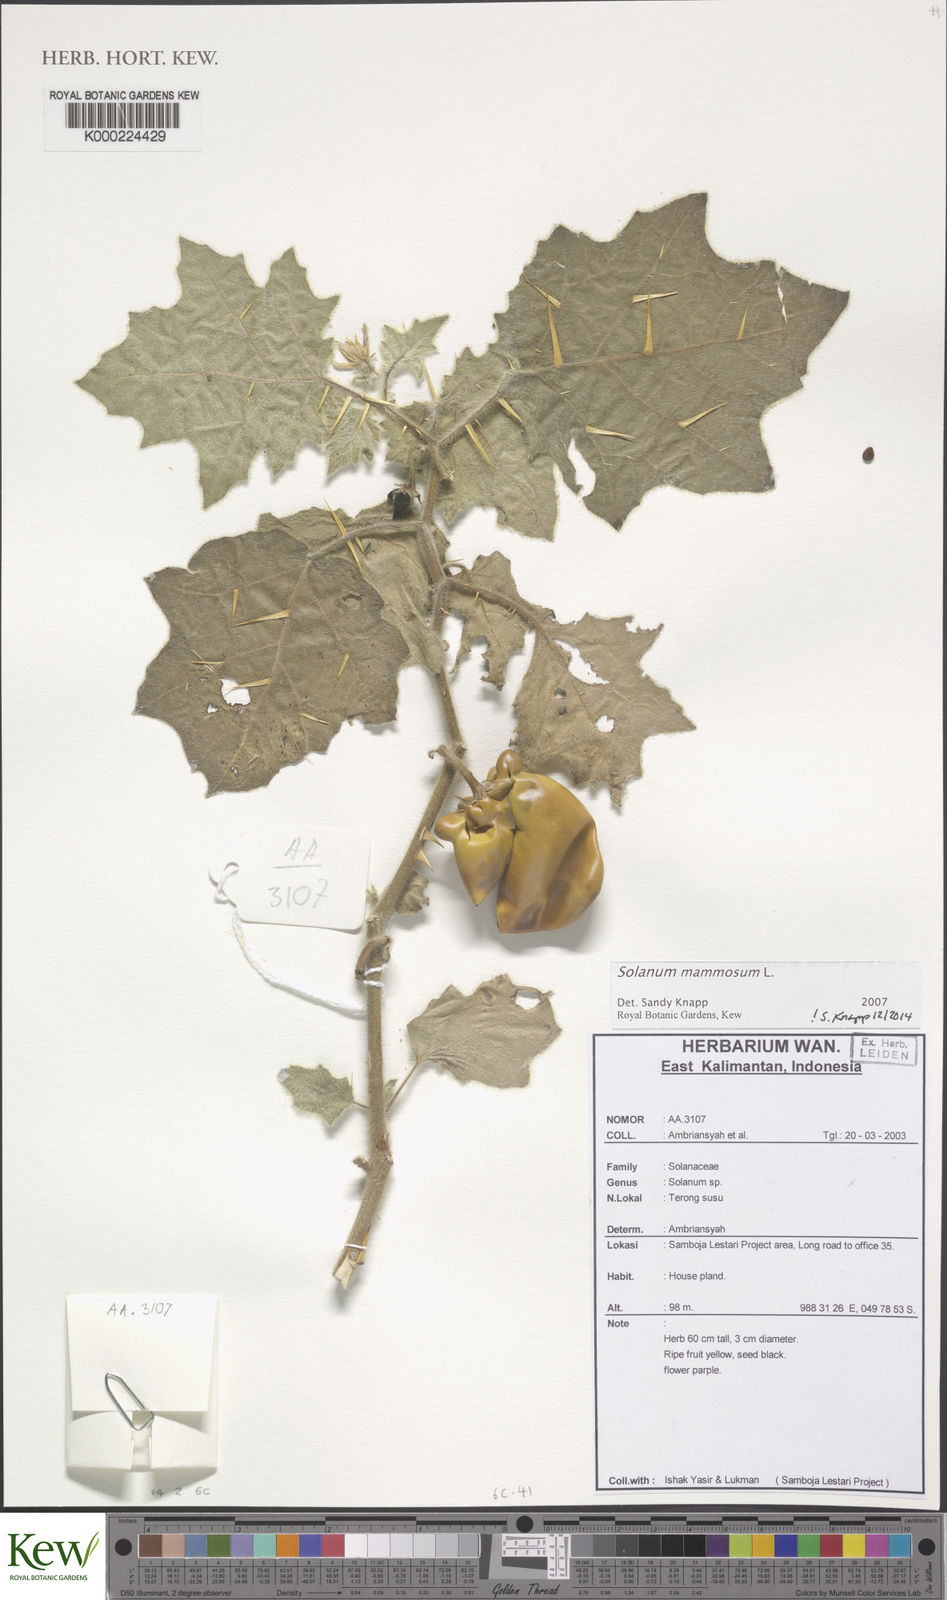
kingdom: Plantae
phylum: Tracheophyta
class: Magnoliopsida
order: Solanales
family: Solanaceae
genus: Solanum
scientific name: Solanum mammosum
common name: Nipple fruit
